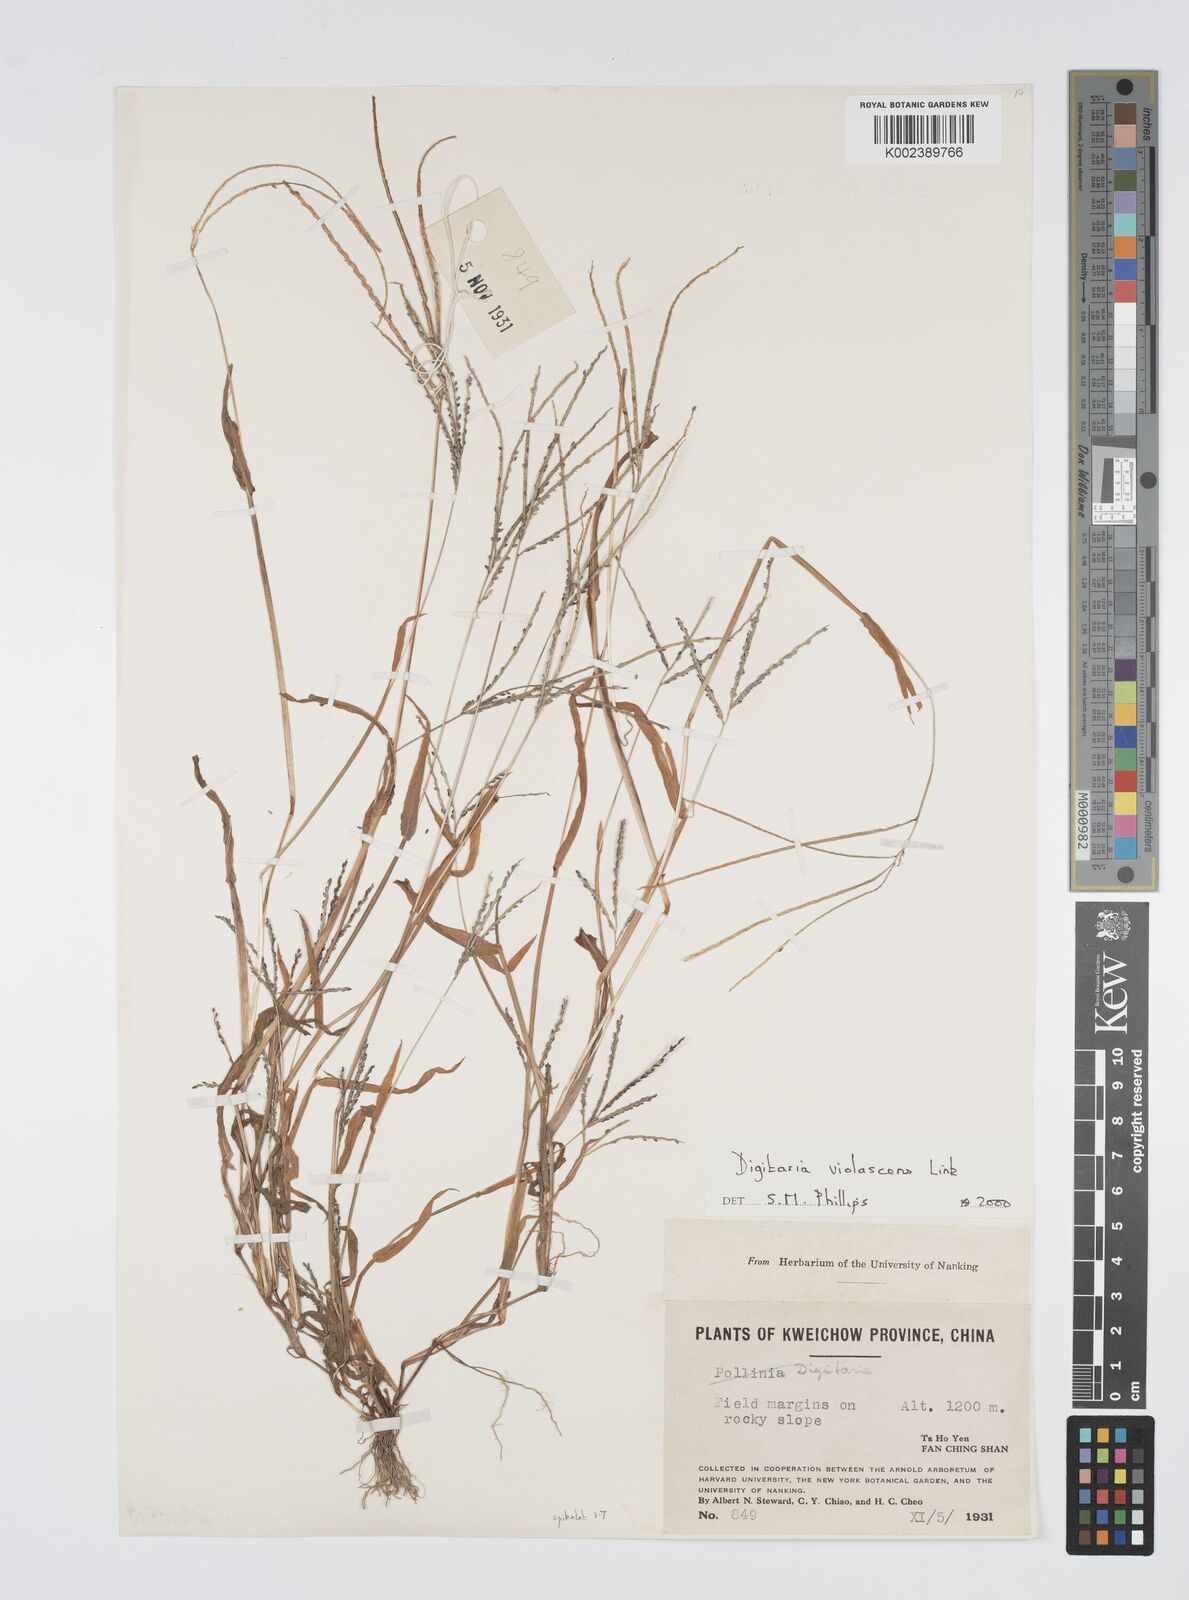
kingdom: Plantae
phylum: Tracheophyta
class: Liliopsida
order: Poales
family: Poaceae
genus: Digitaria
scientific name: Digitaria violascens
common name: Violet crabgrass
